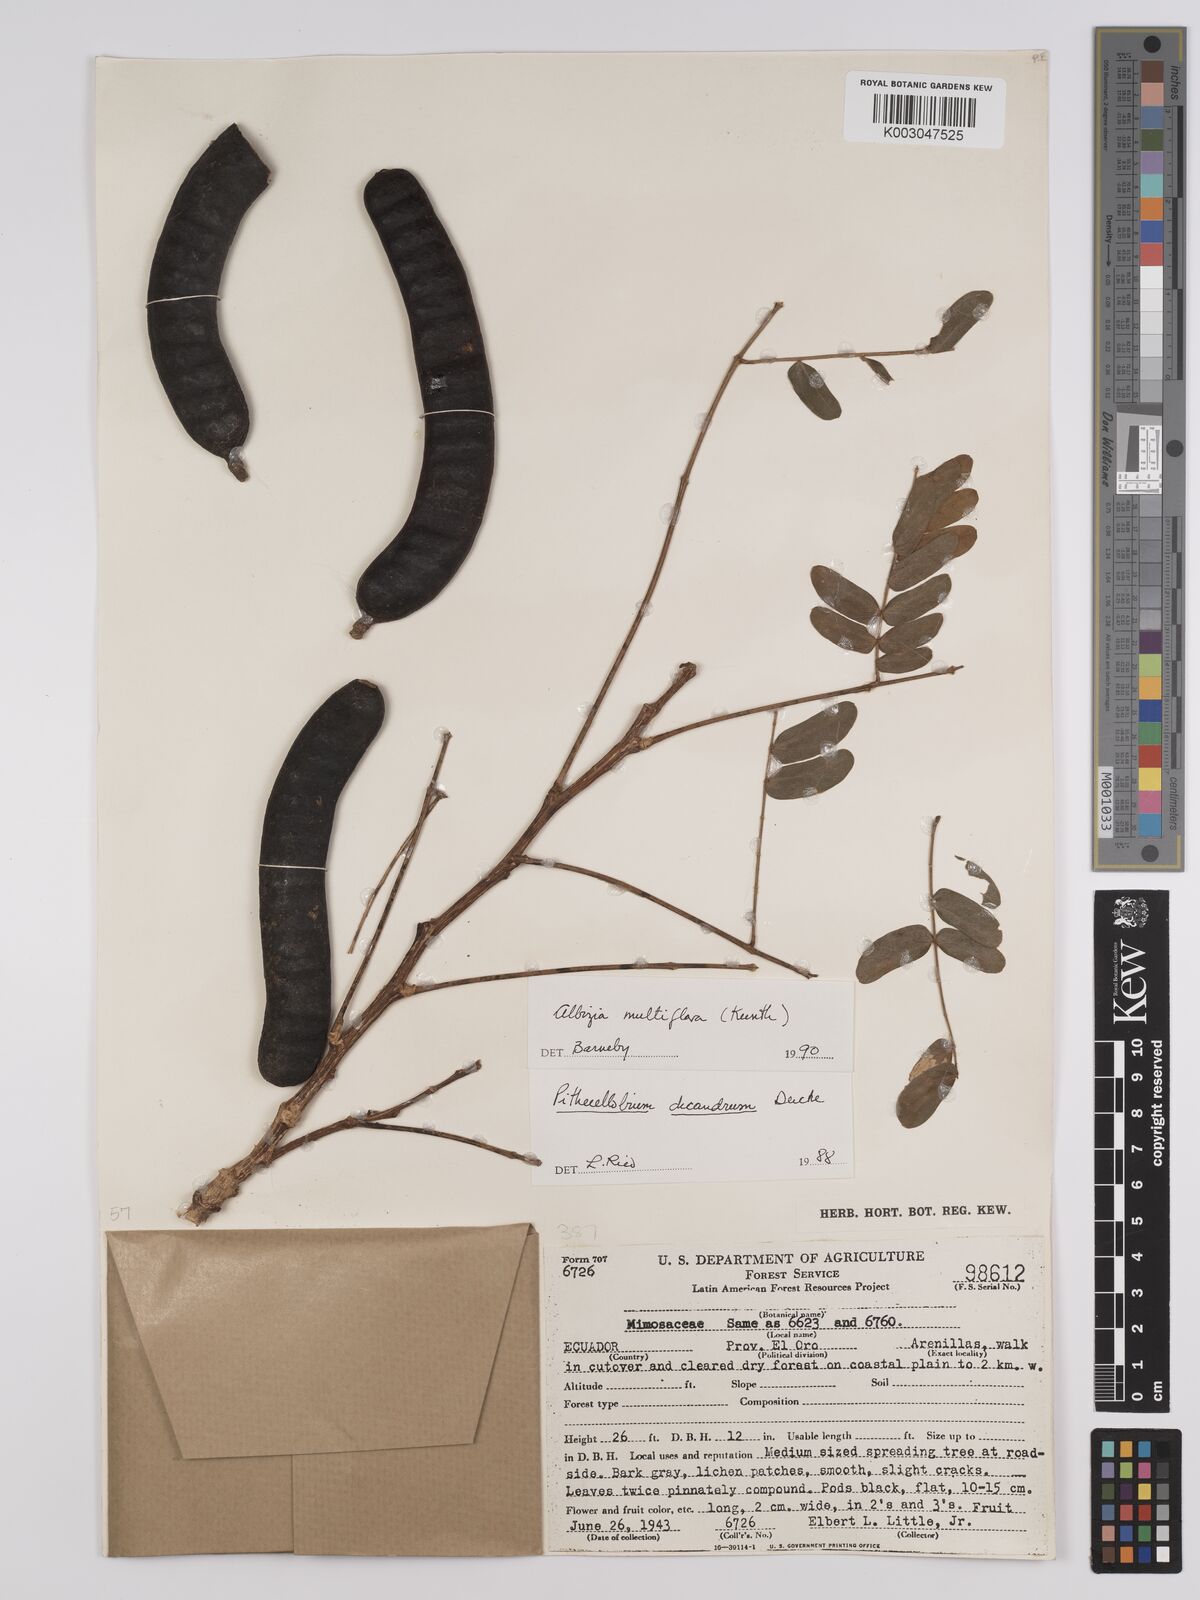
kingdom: Plantae
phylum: Tracheophyta
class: Magnoliopsida
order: Fabales
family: Fabaceae
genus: Albizia
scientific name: Albizia multiflora
